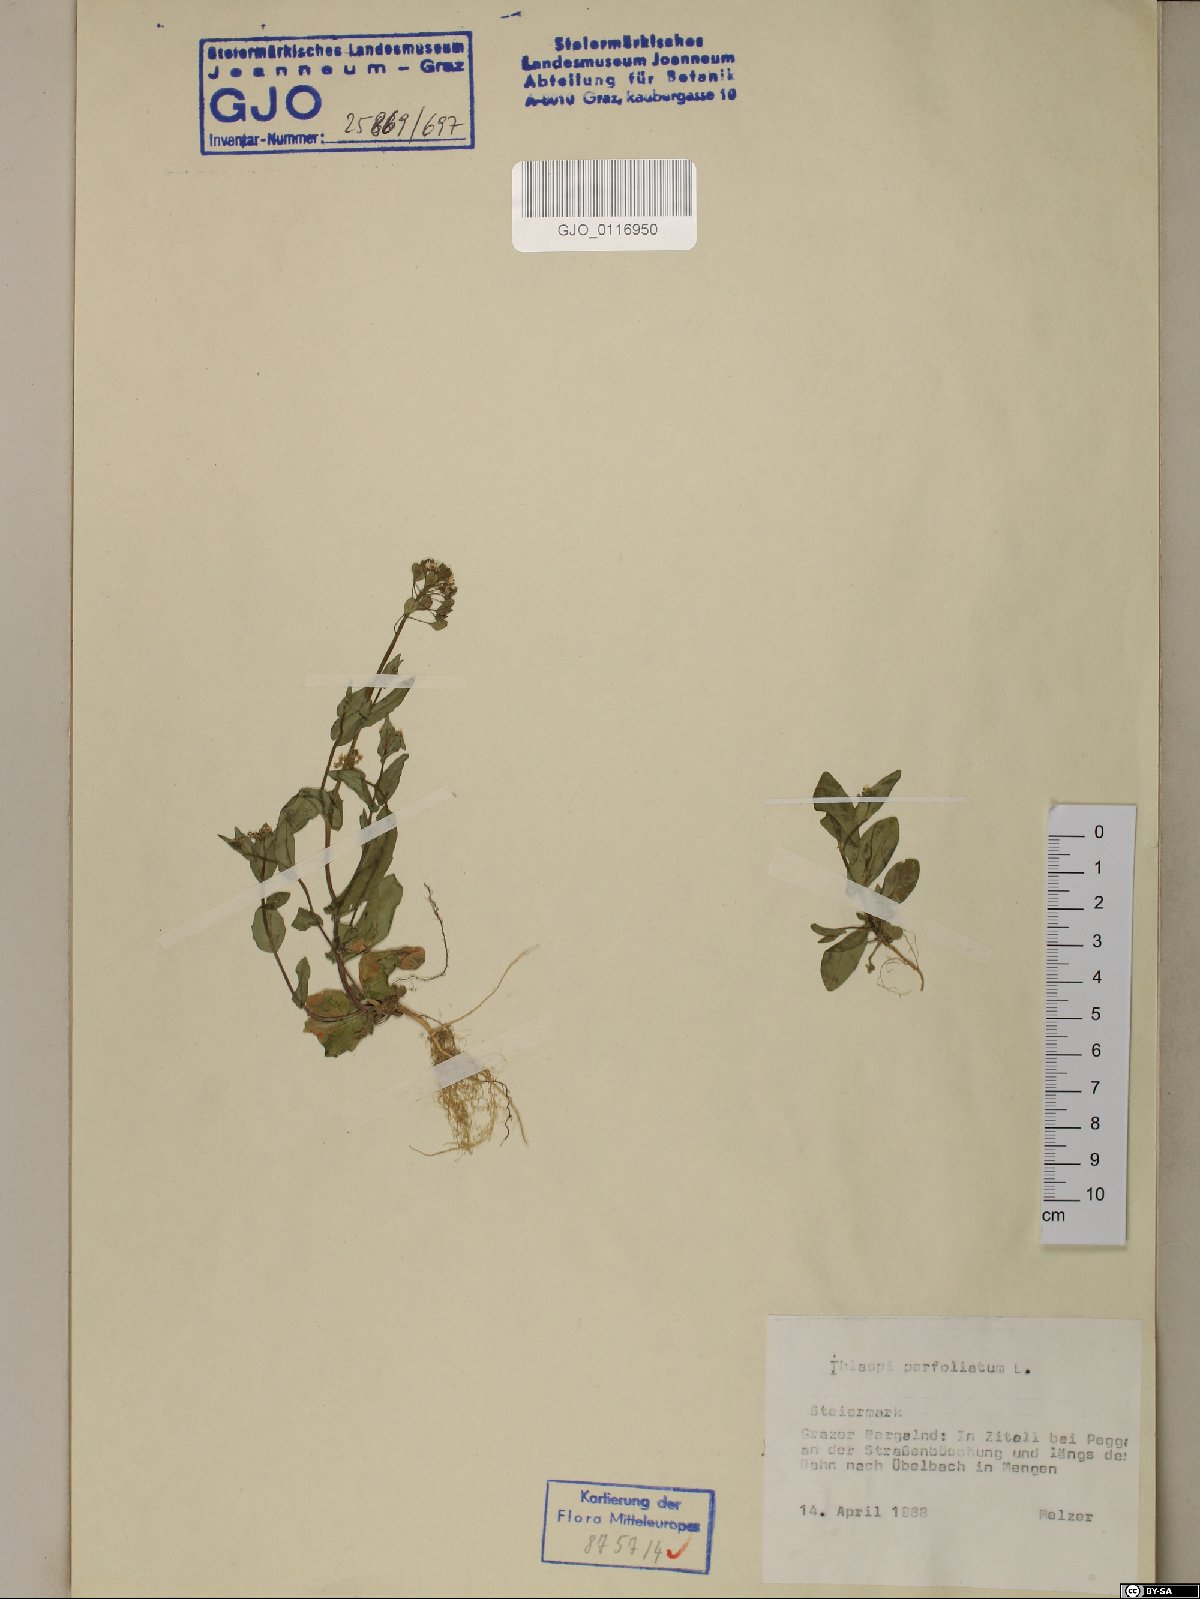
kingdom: Plantae
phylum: Tracheophyta
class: Magnoliopsida
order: Brassicales
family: Brassicaceae
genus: Noccaea
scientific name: Noccaea perfoliata
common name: Perfoliate pennycress
